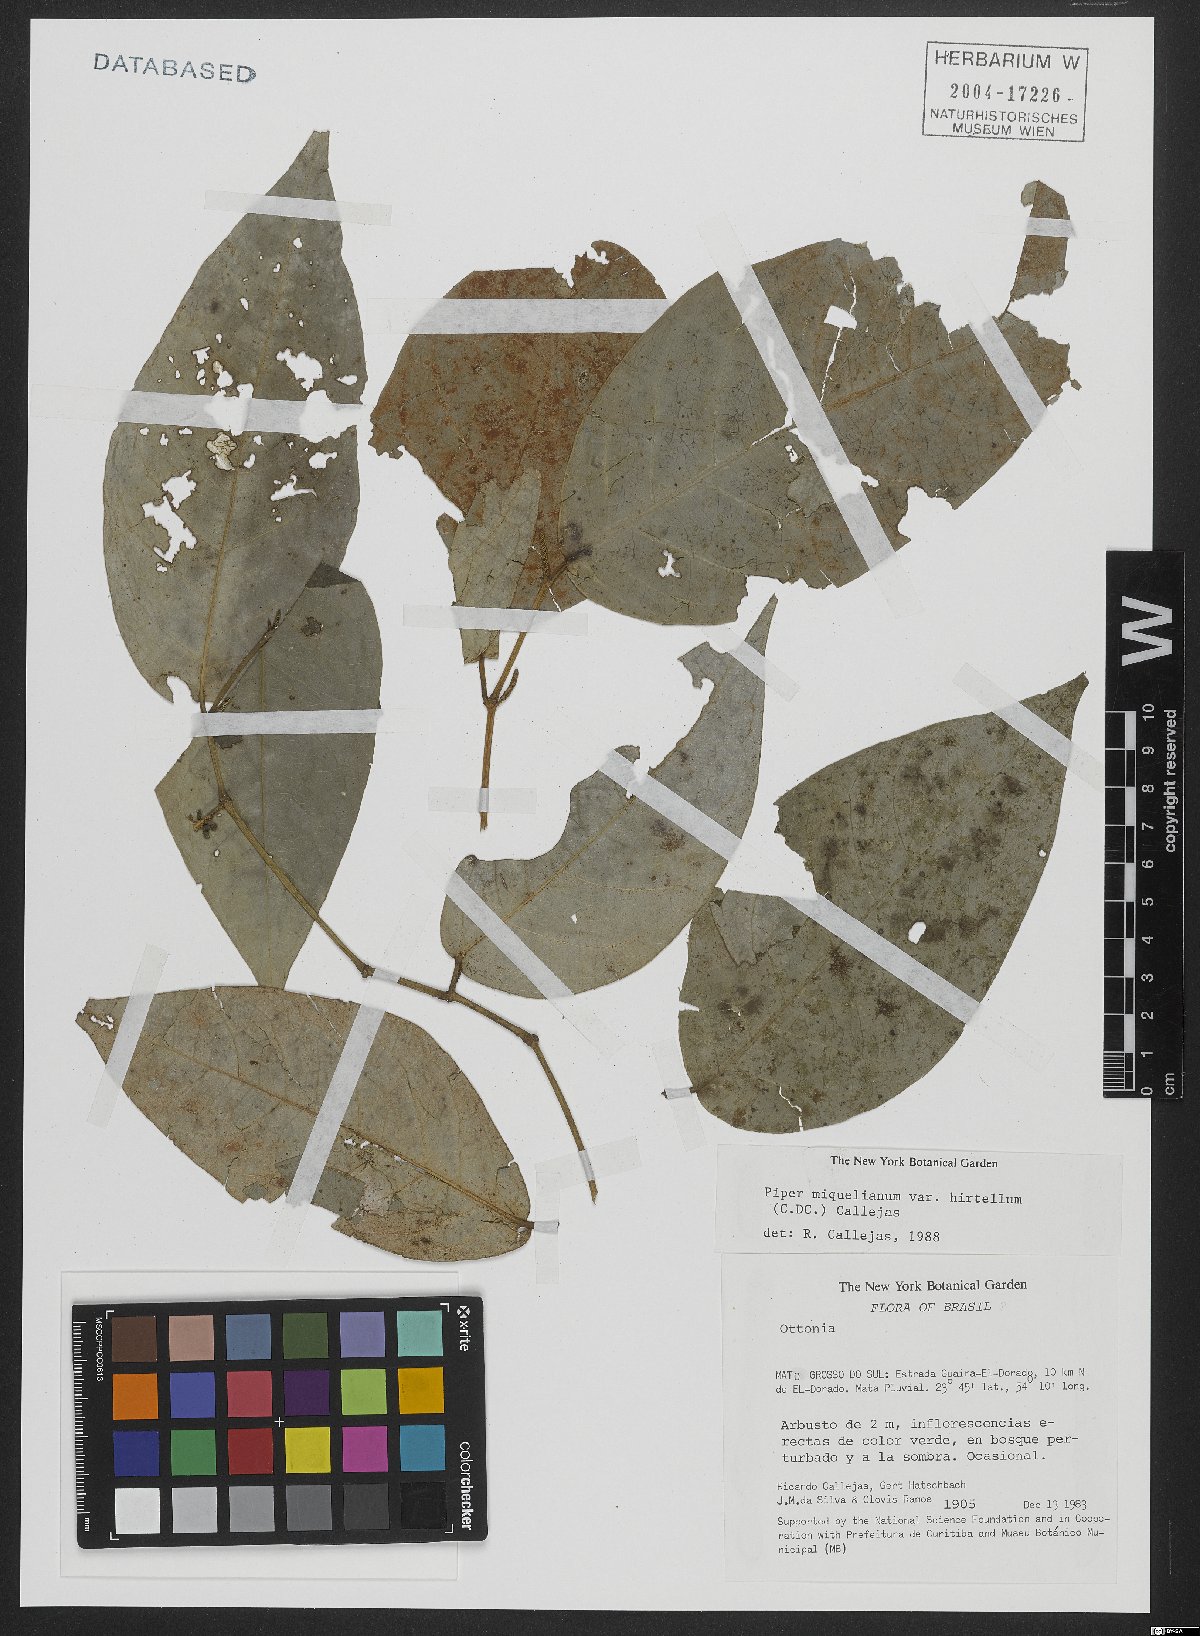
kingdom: Plantae
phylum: Tracheophyta
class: Magnoliopsida
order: Piperales
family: Piperaceae
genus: Piper
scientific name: Piper miquelianum
